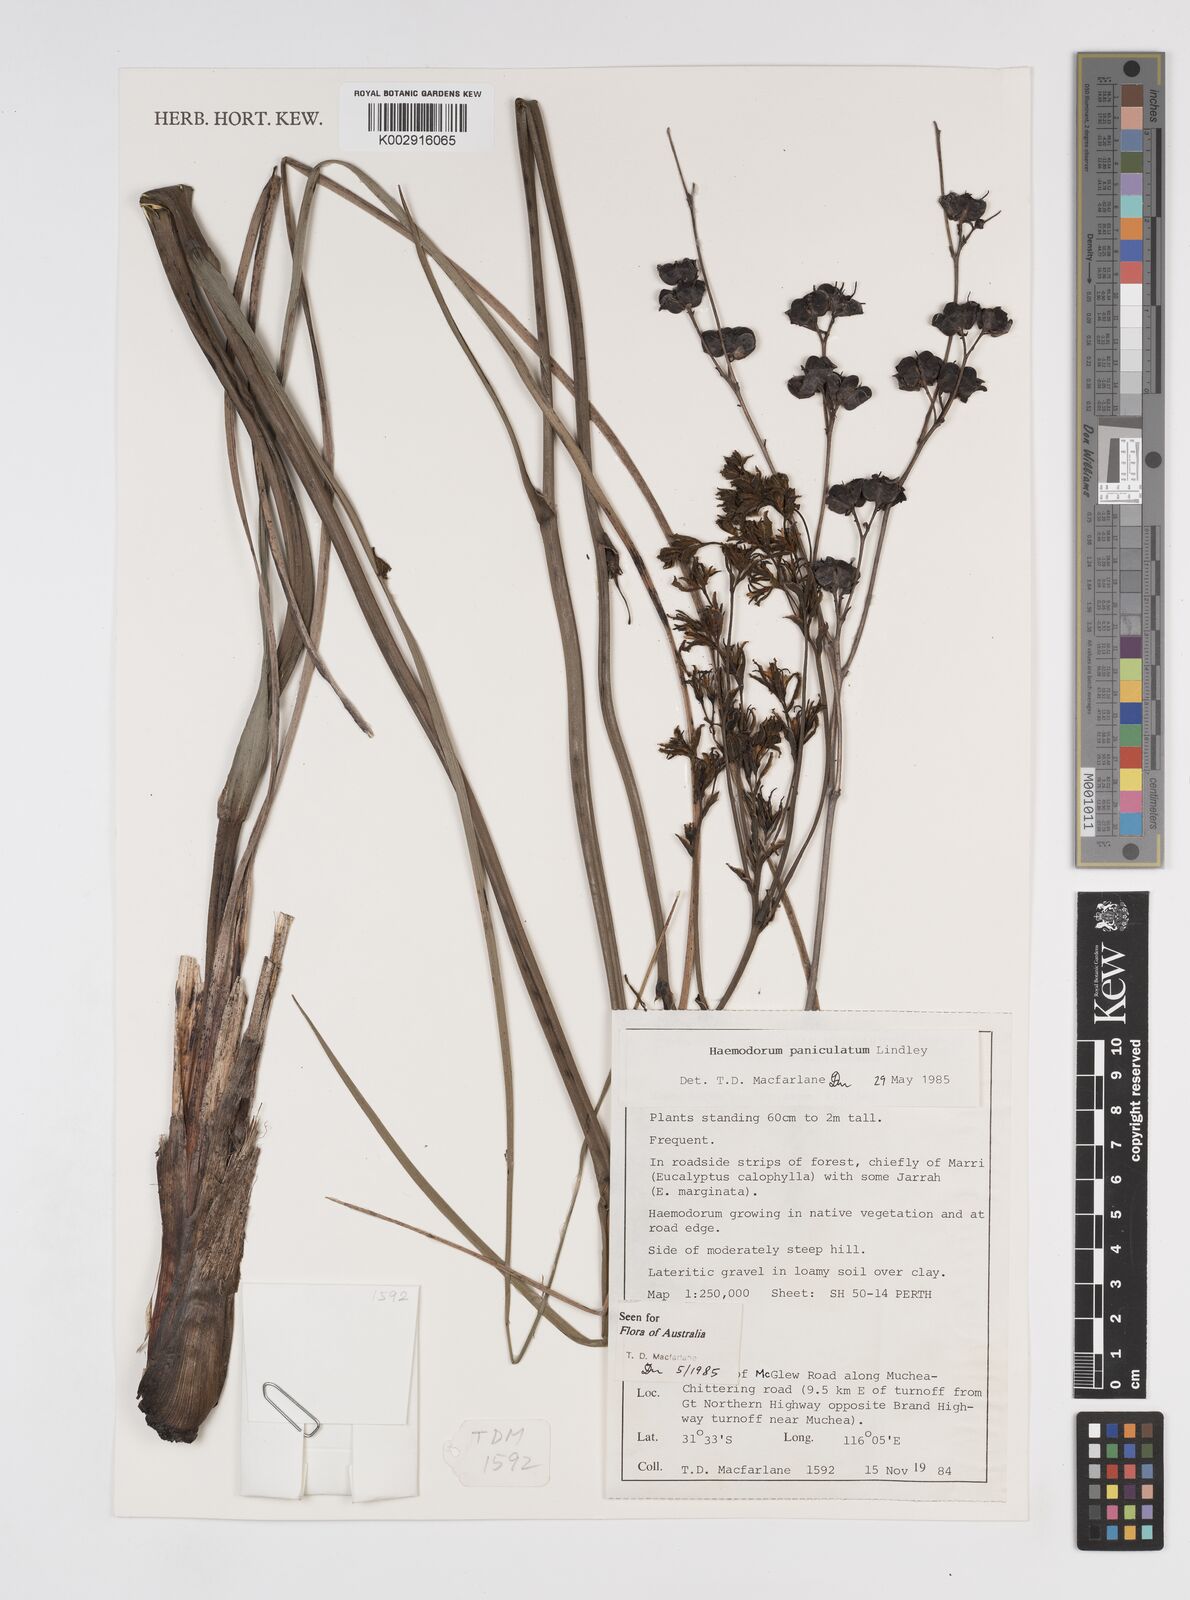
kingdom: Plantae
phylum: Tracheophyta
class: Liliopsida
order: Commelinales
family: Haemodoraceae
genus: Haemodorum
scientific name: Haemodorum paniculatum
